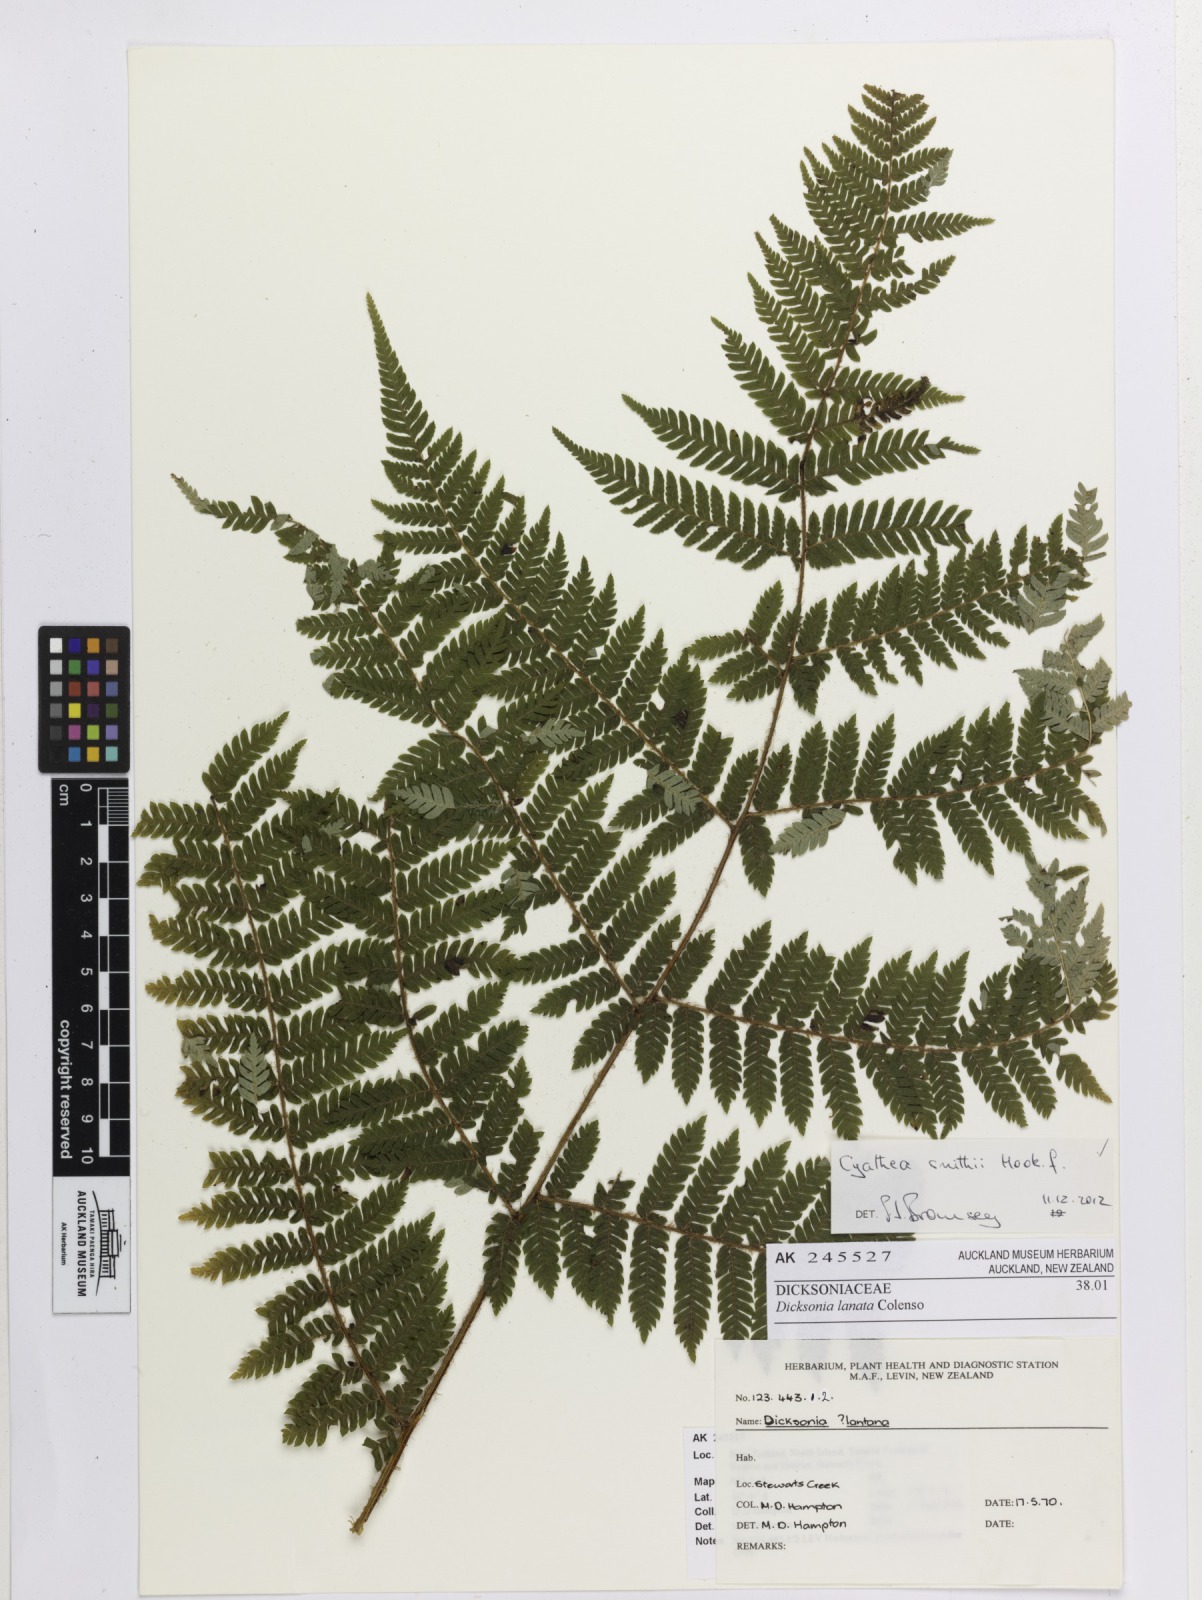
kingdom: Plantae
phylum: Tracheophyta
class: Polypodiopsida
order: Cyatheales
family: Cyatheaceae
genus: Alsophila
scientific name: Alsophila smithii
